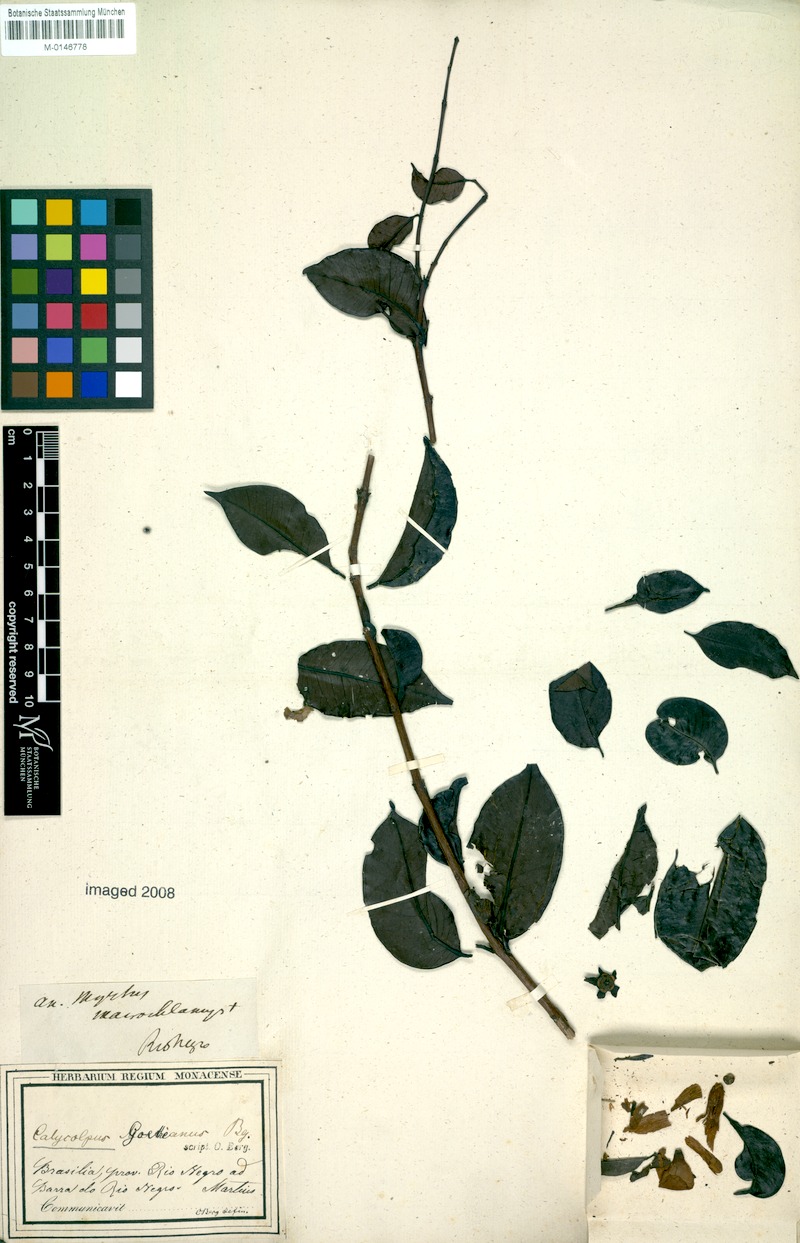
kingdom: Plantae
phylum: Tracheophyta
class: Magnoliopsida
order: Myrtales
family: Myrtaceae
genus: Calycolpus
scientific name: Calycolpus goetheanus
